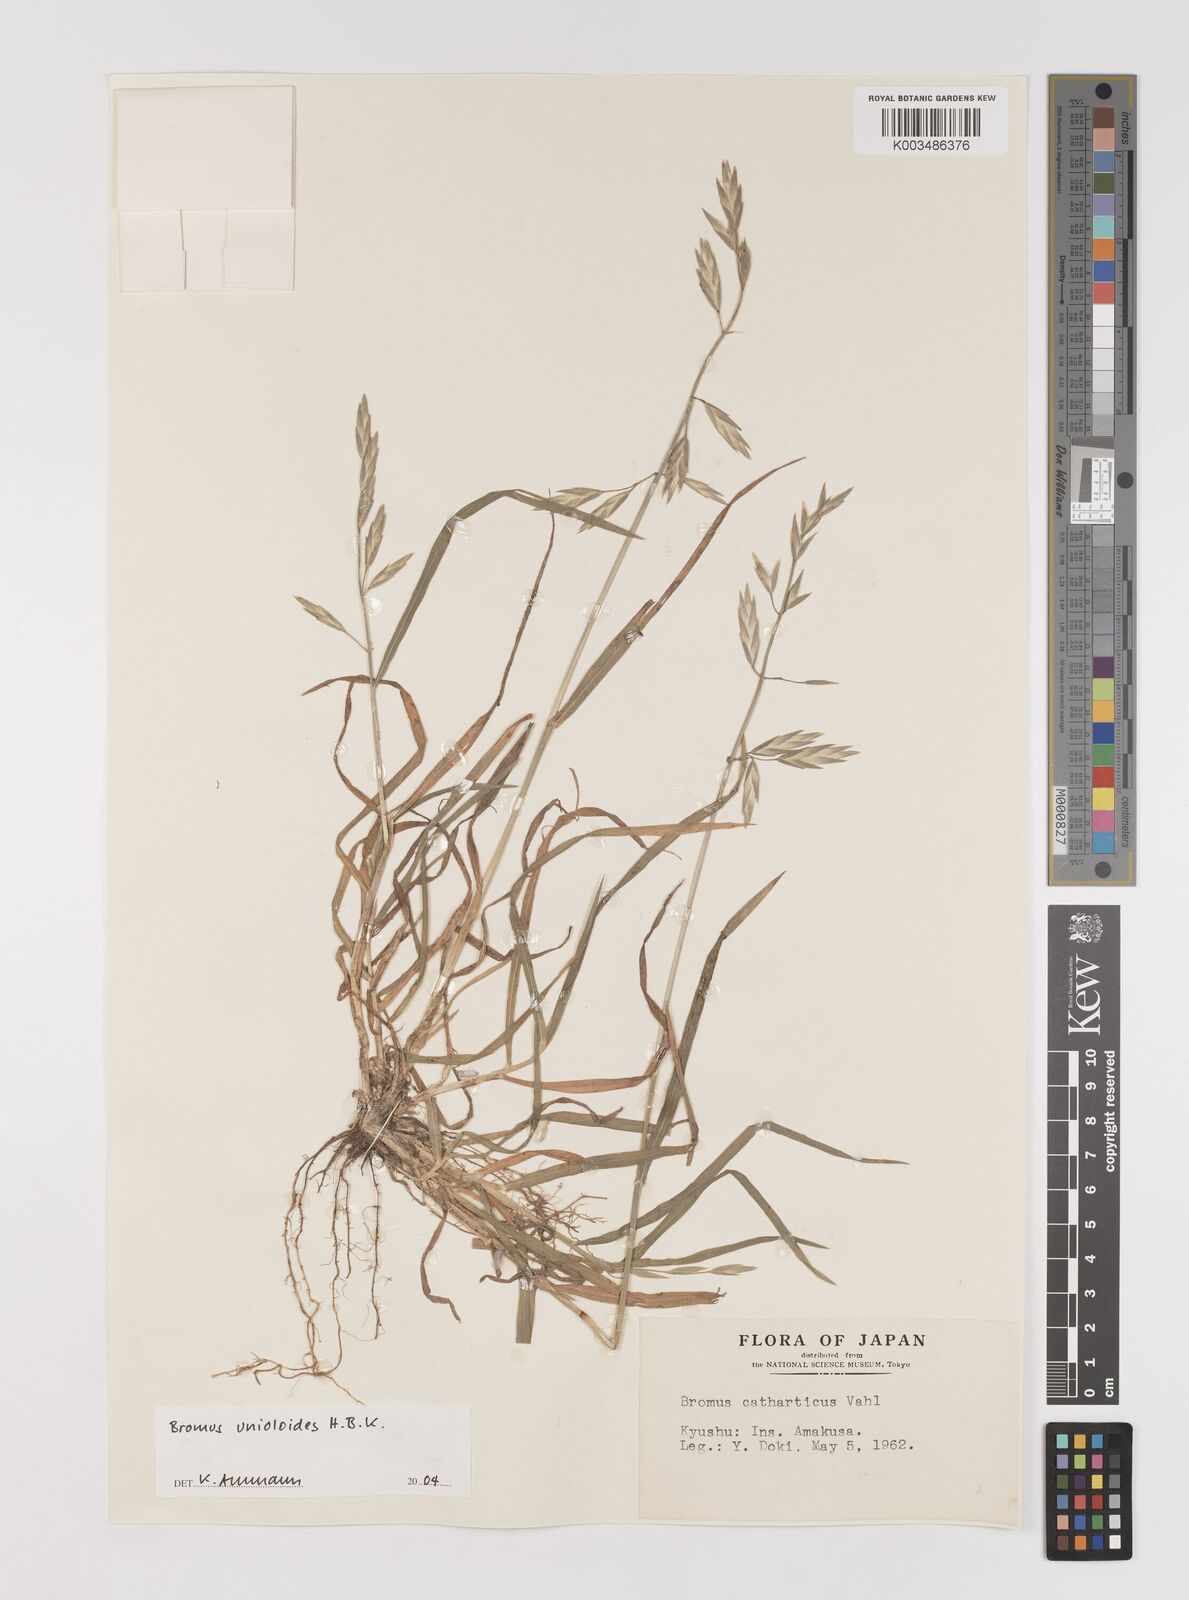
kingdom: Plantae
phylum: Tracheophyta
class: Liliopsida
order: Poales
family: Poaceae
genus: Bromus
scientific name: Bromus catharticus
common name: Rescuegrass
